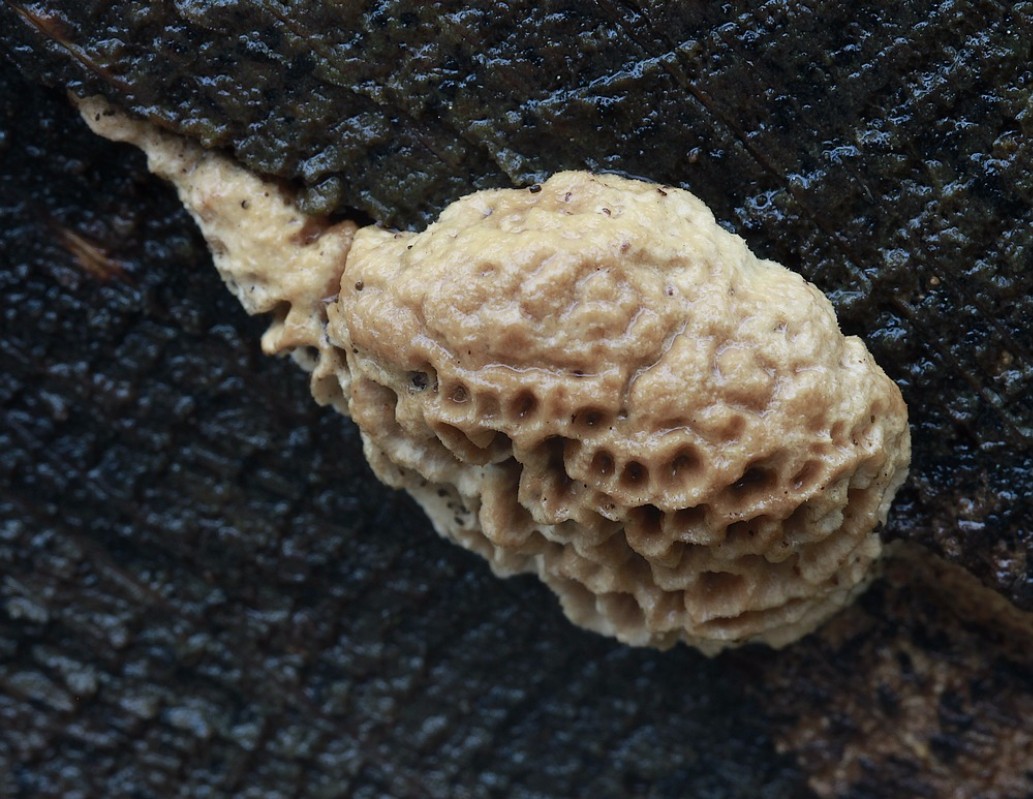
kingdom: Fungi
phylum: Basidiomycota
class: Agaricomycetes
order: Polyporales
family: Fomitopsidaceae
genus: Daedalea
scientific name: Daedalea quercina
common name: ege-labyrintsvamp
